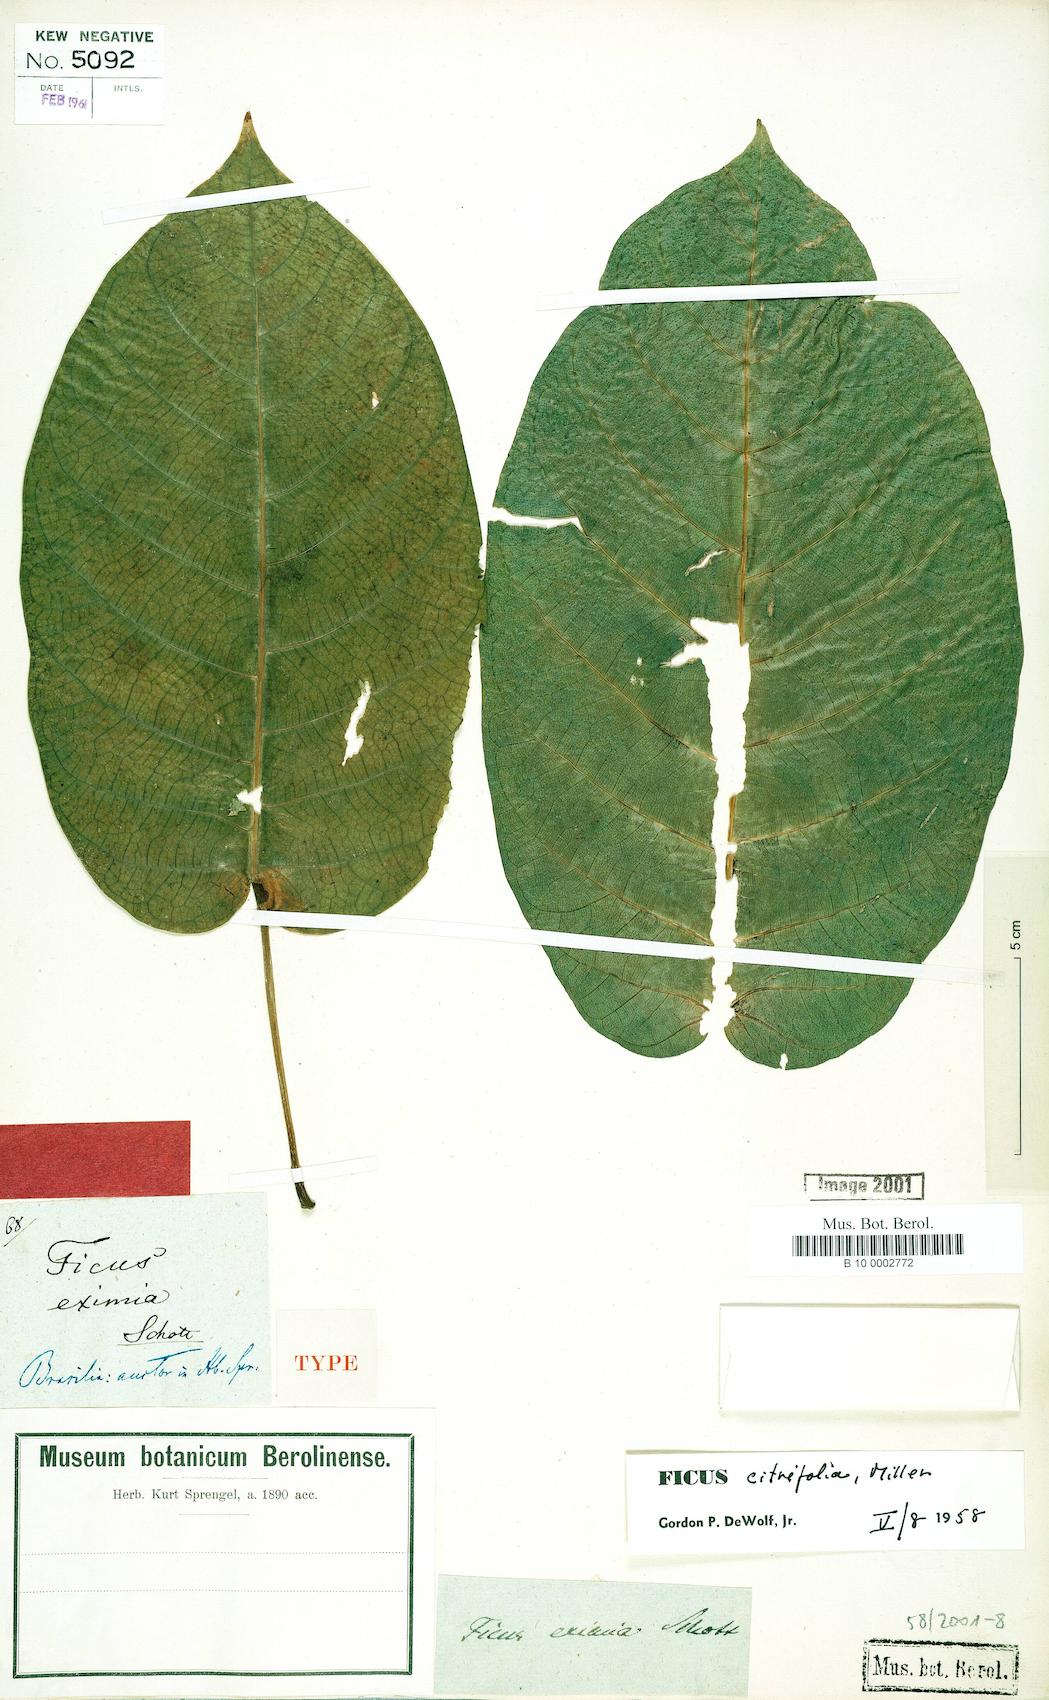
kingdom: Plantae
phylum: Tracheophyta
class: Magnoliopsida
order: Rosales
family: Moraceae
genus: Ficus
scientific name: Ficus eximia
